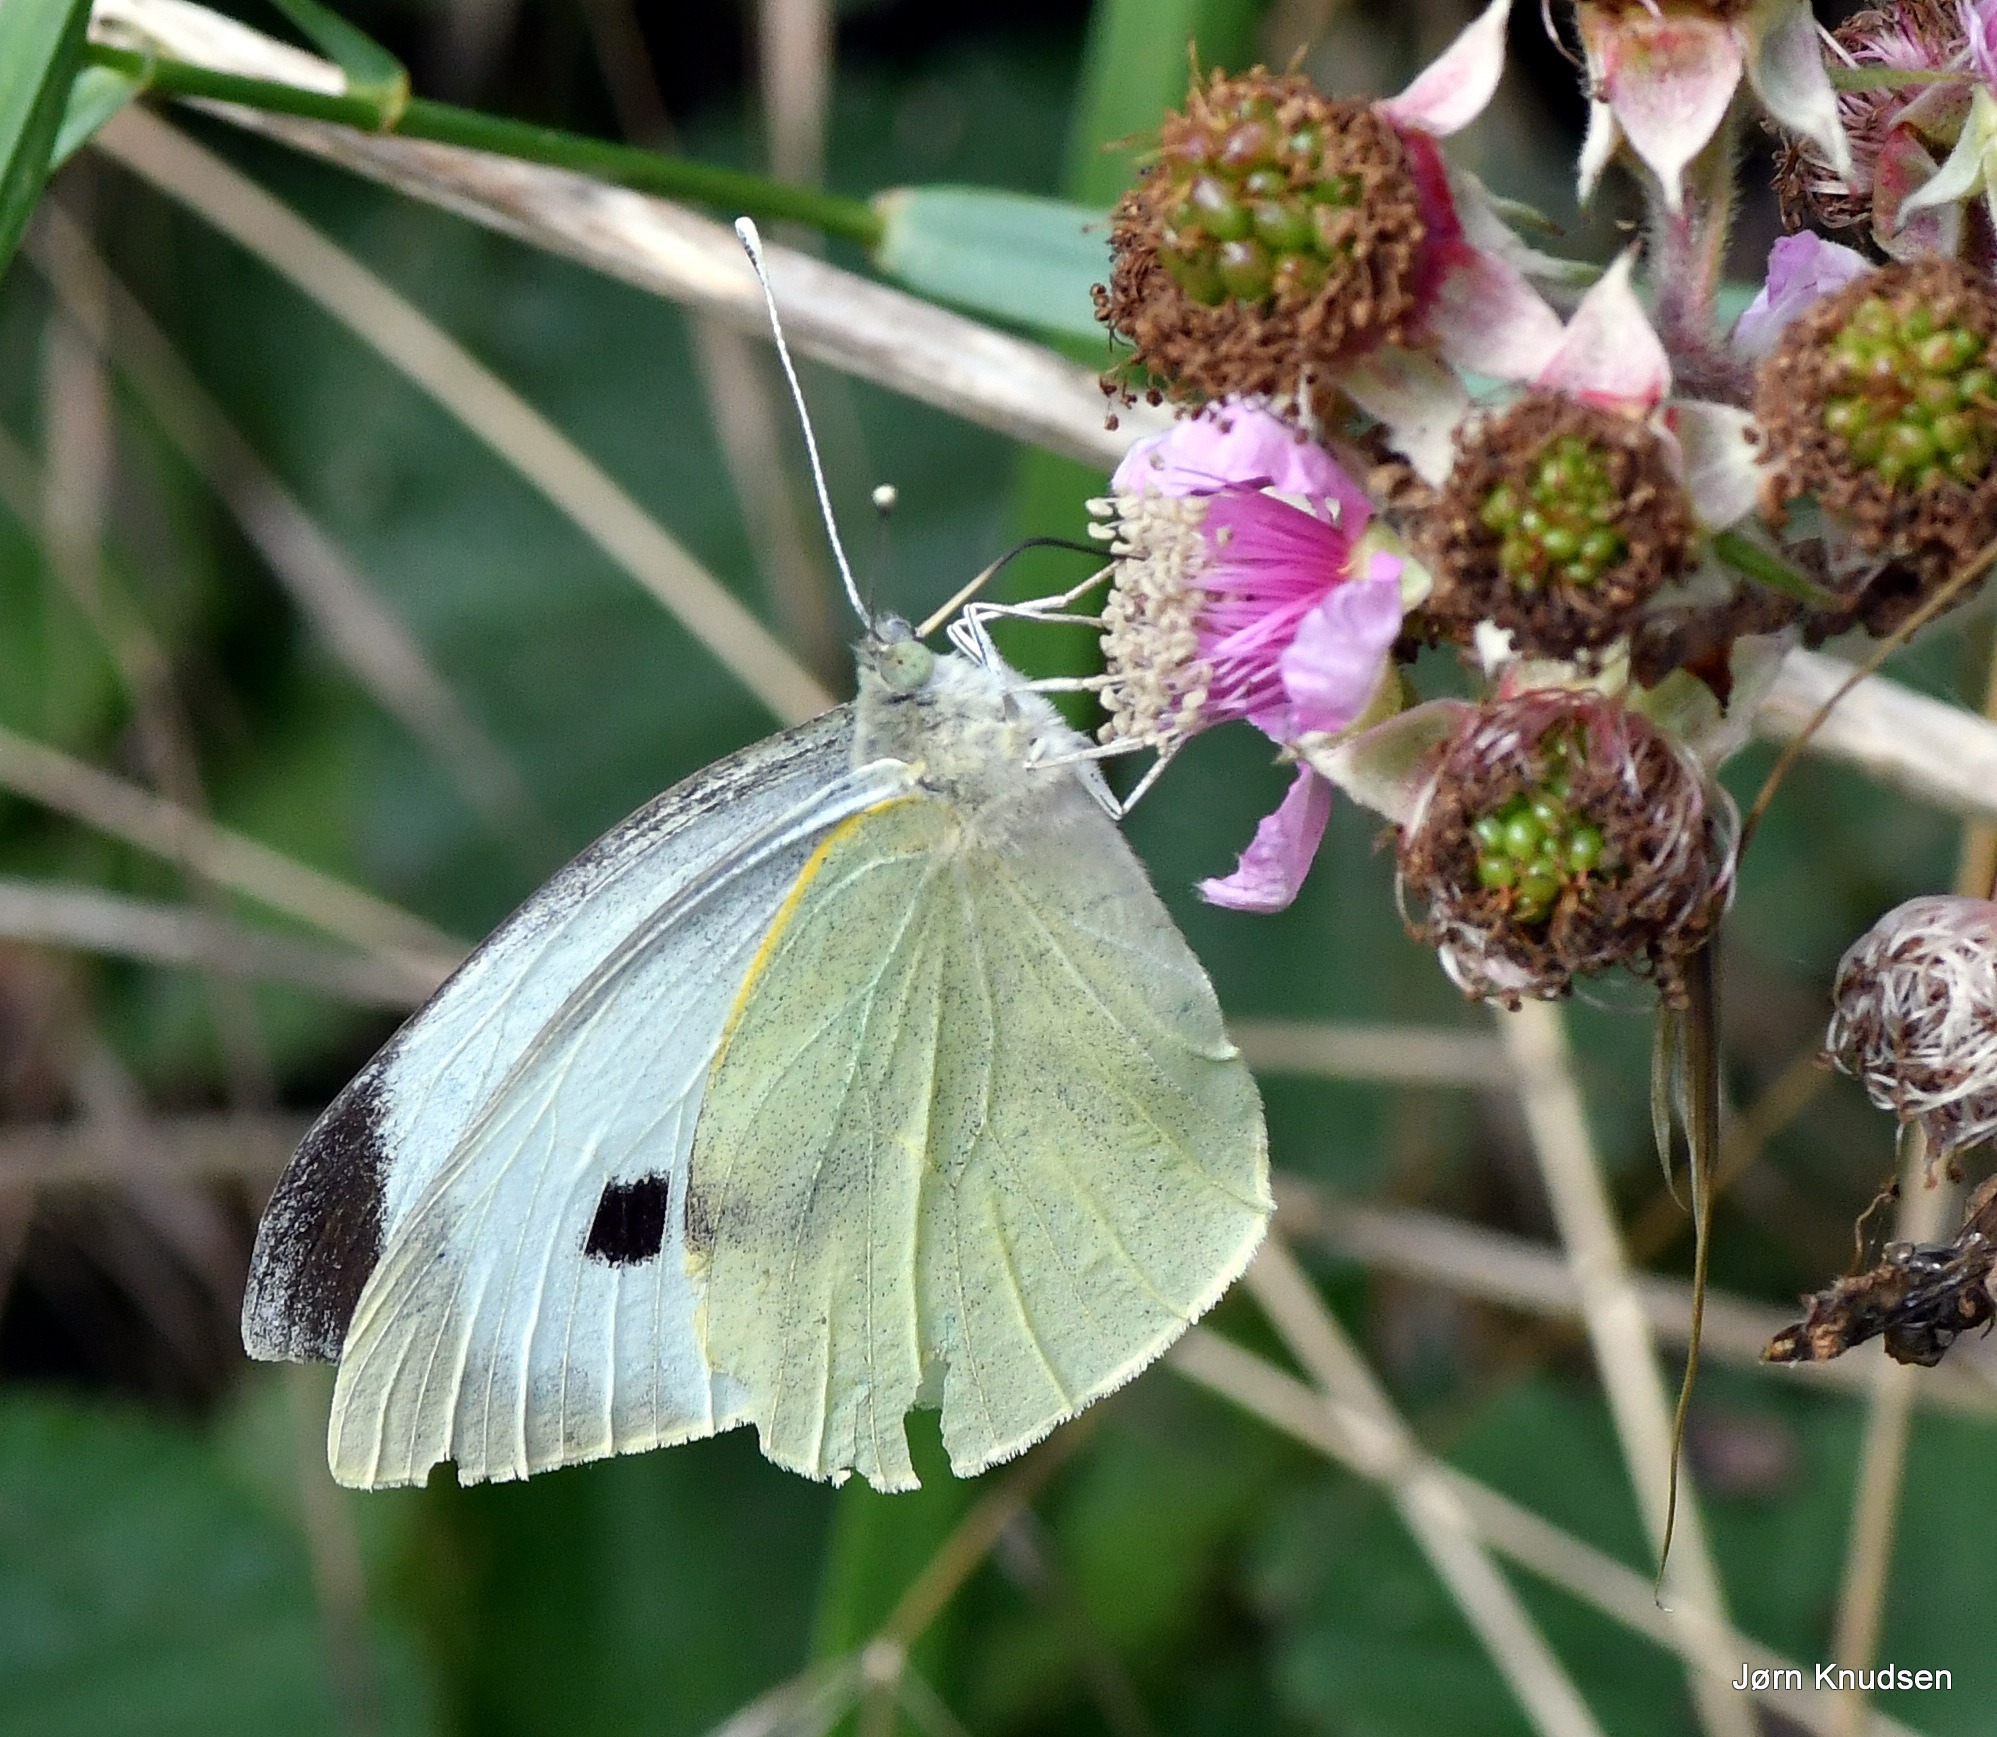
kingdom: Animalia
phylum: Arthropoda
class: Insecta
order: Lepidoptera
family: Pieridae
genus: Pieris
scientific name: Pieris brassicae
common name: Stor kålsommerfugl
